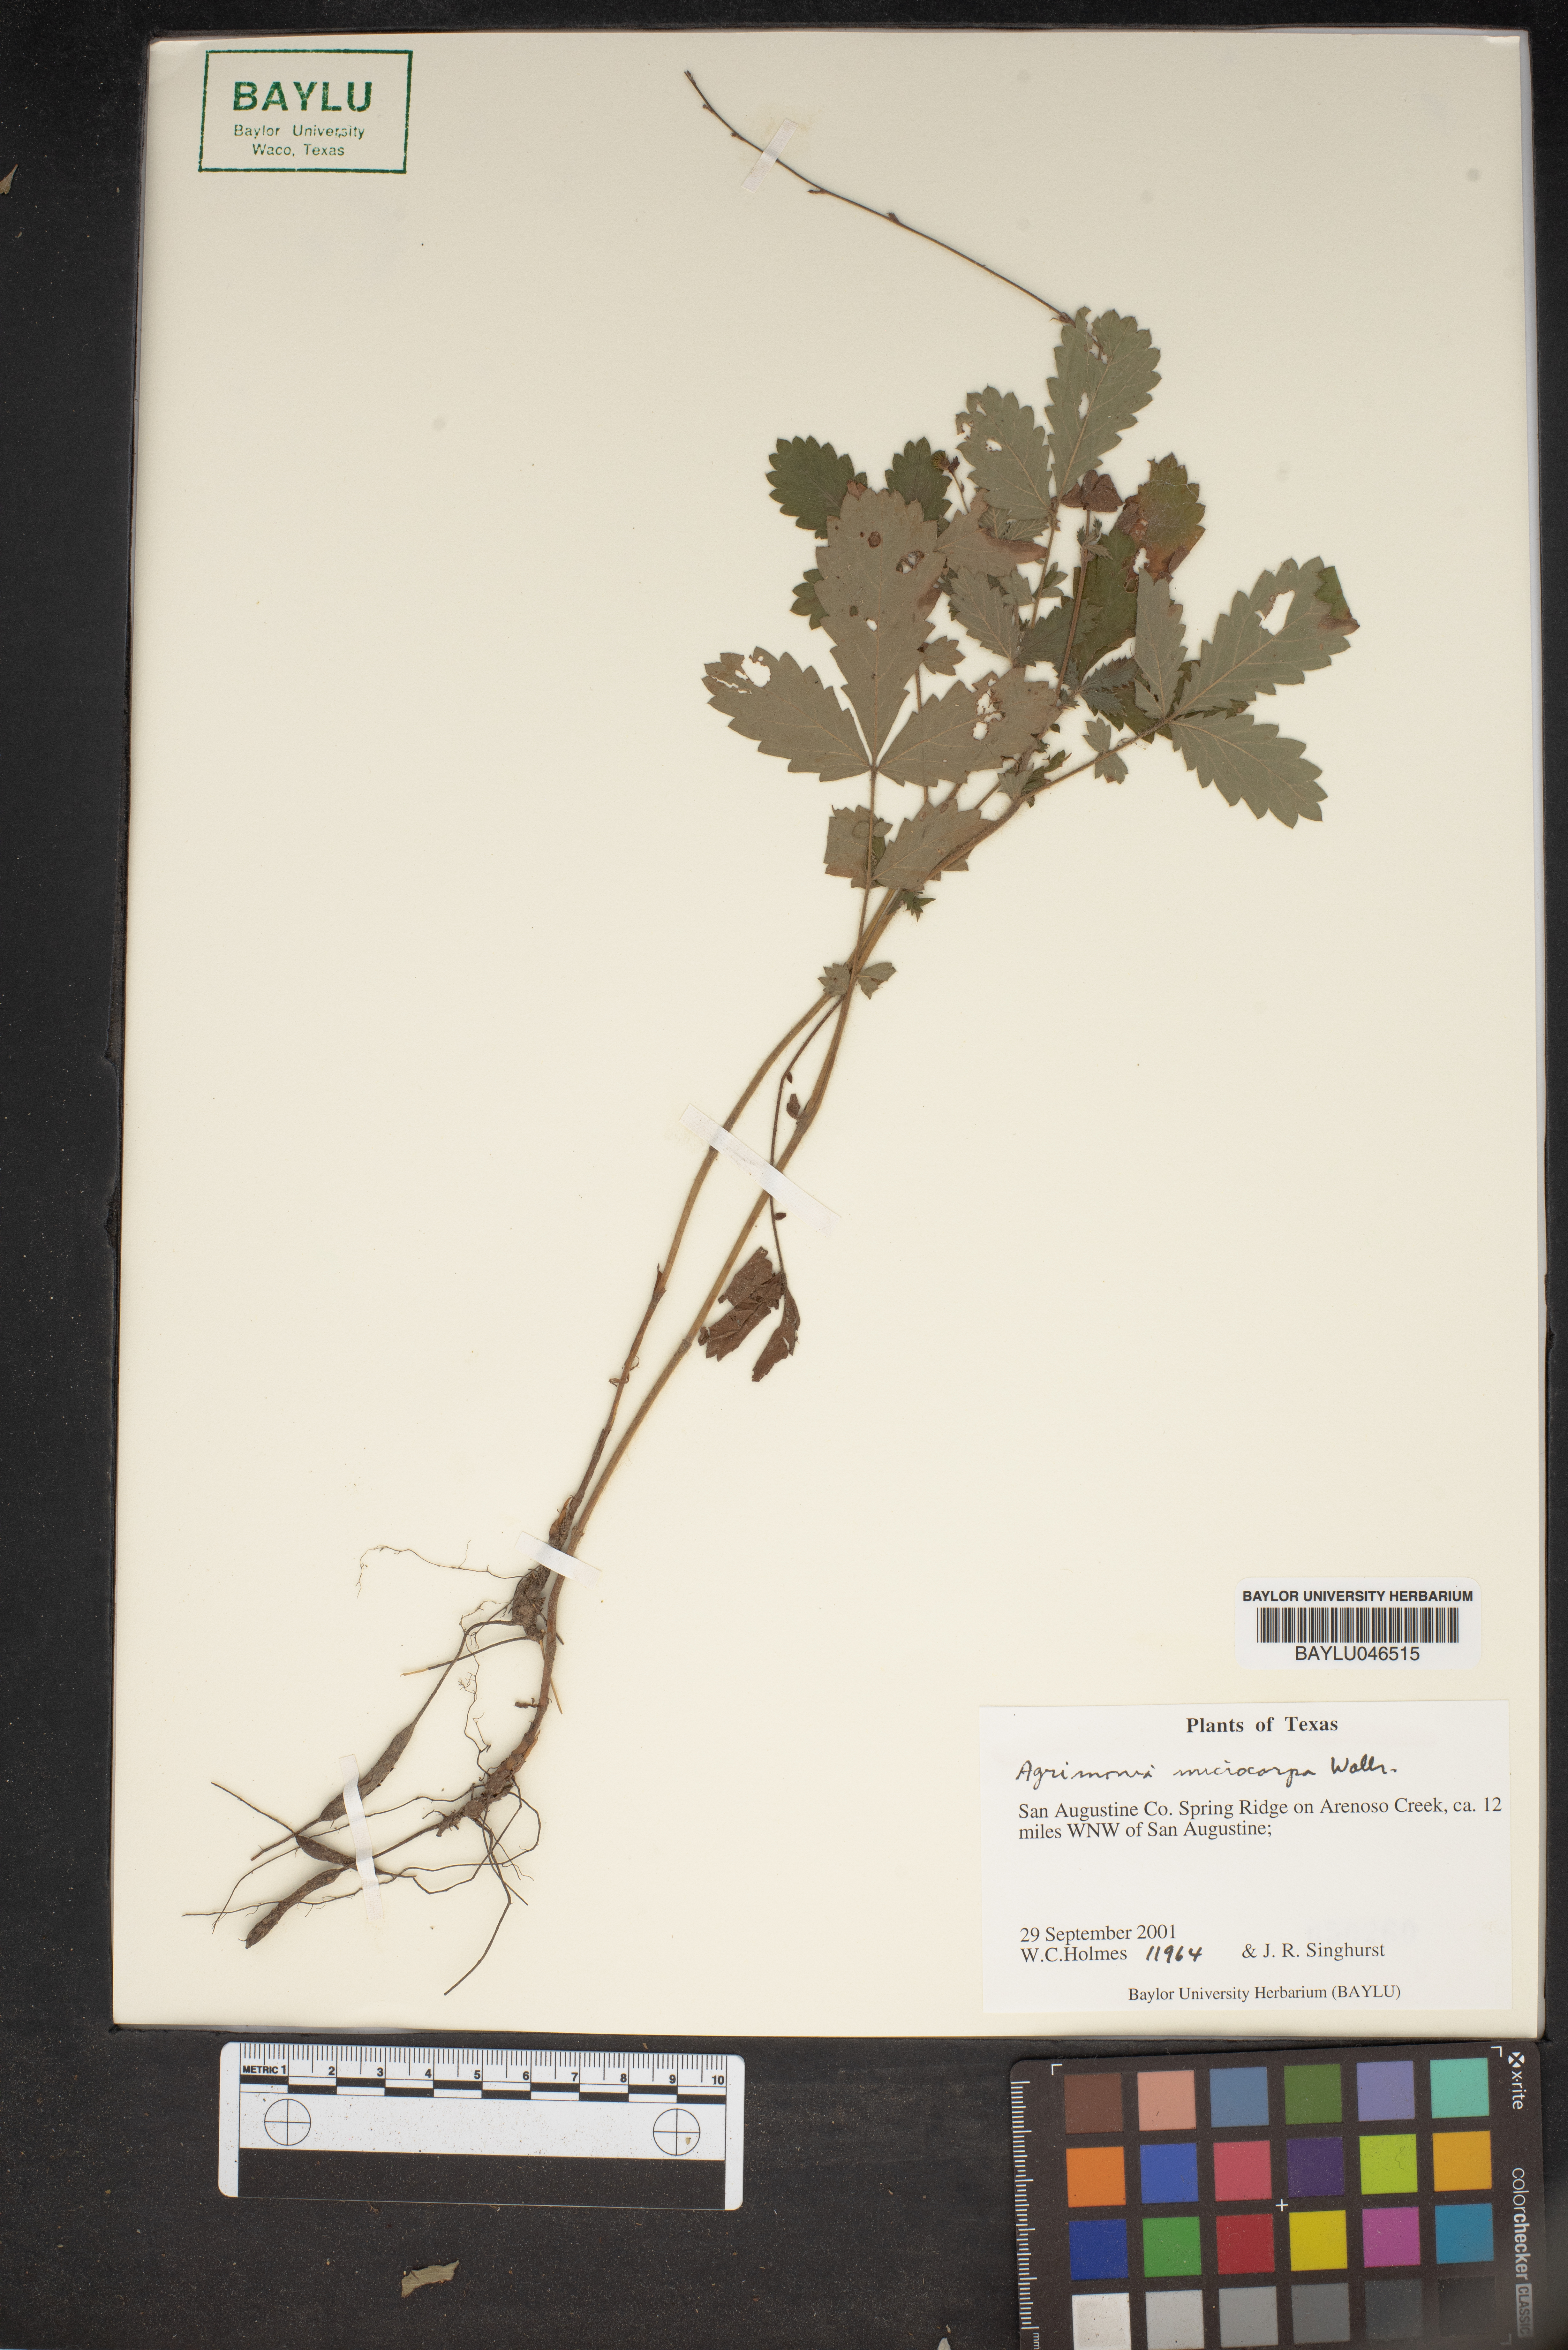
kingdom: Plantae
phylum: Tracheophyta
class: Magnoliopsida
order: Rosales
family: Rosaceae
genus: Agrimonia
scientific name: Agrimonia microcarpa
